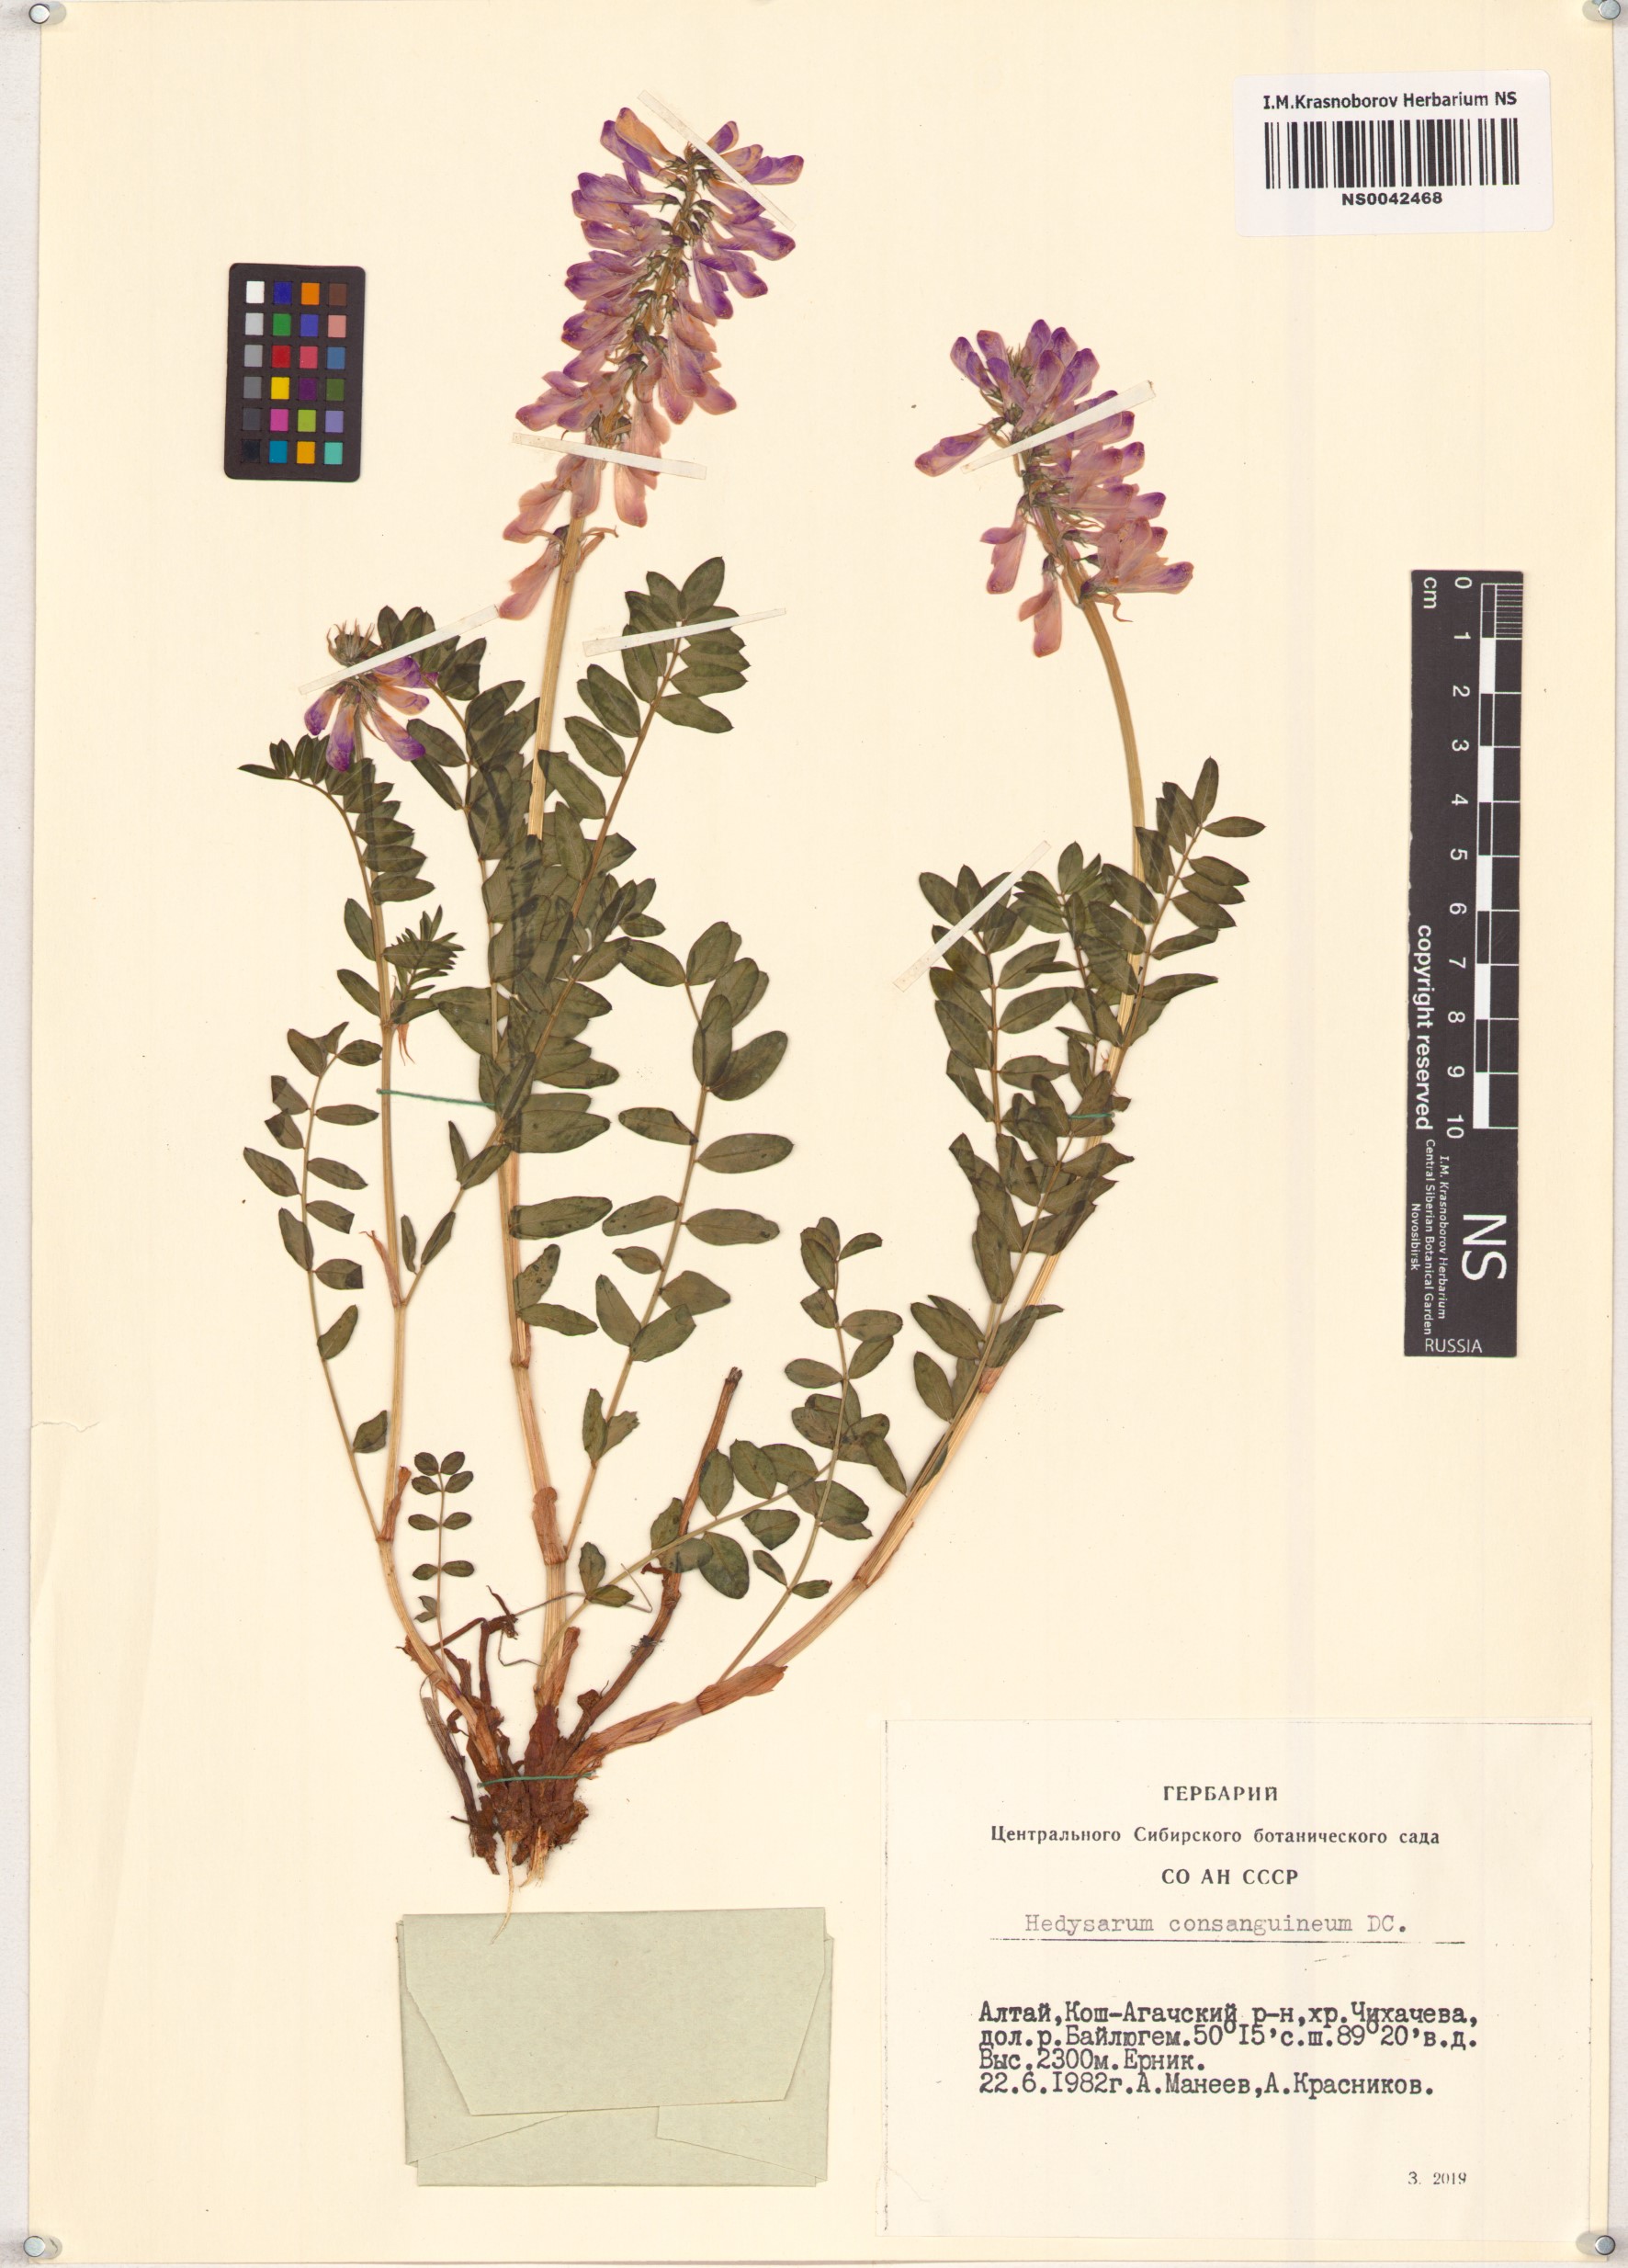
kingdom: Plantae
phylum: Tracheophyta
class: Magnoliopsida
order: Fabales
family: Fabaceae
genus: Hedysarum
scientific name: Hedysarum consanguineum
